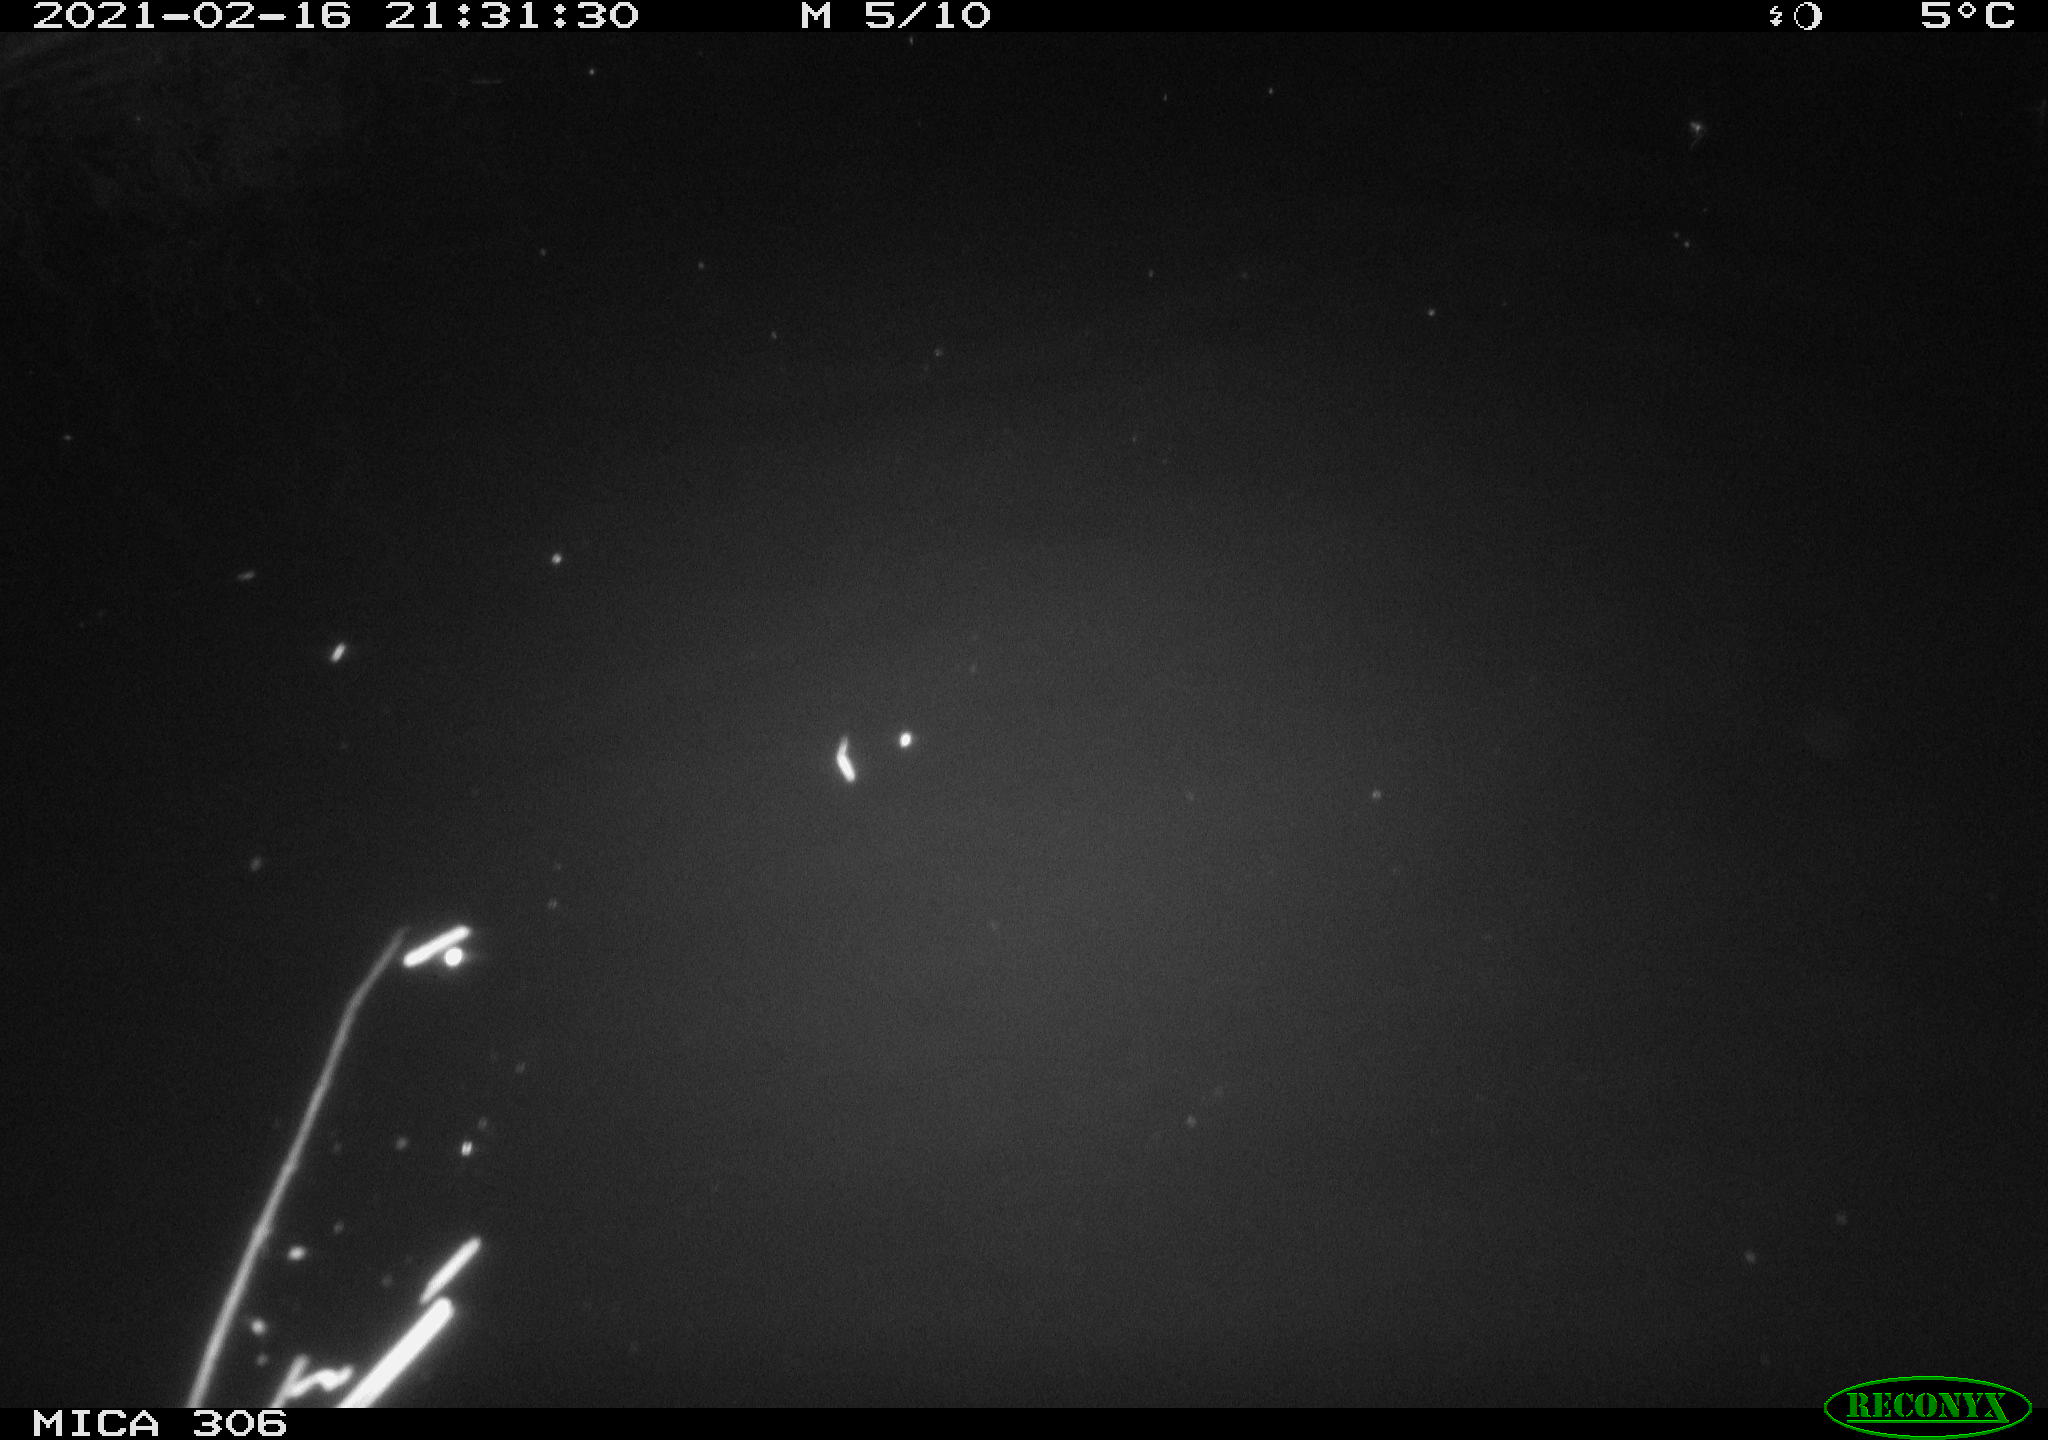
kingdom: Animalia
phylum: Chordata
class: Mammalia
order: Rodentia
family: Cricetidae
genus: Ondatra
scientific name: Ondatra zibethicus
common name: Muskrat
